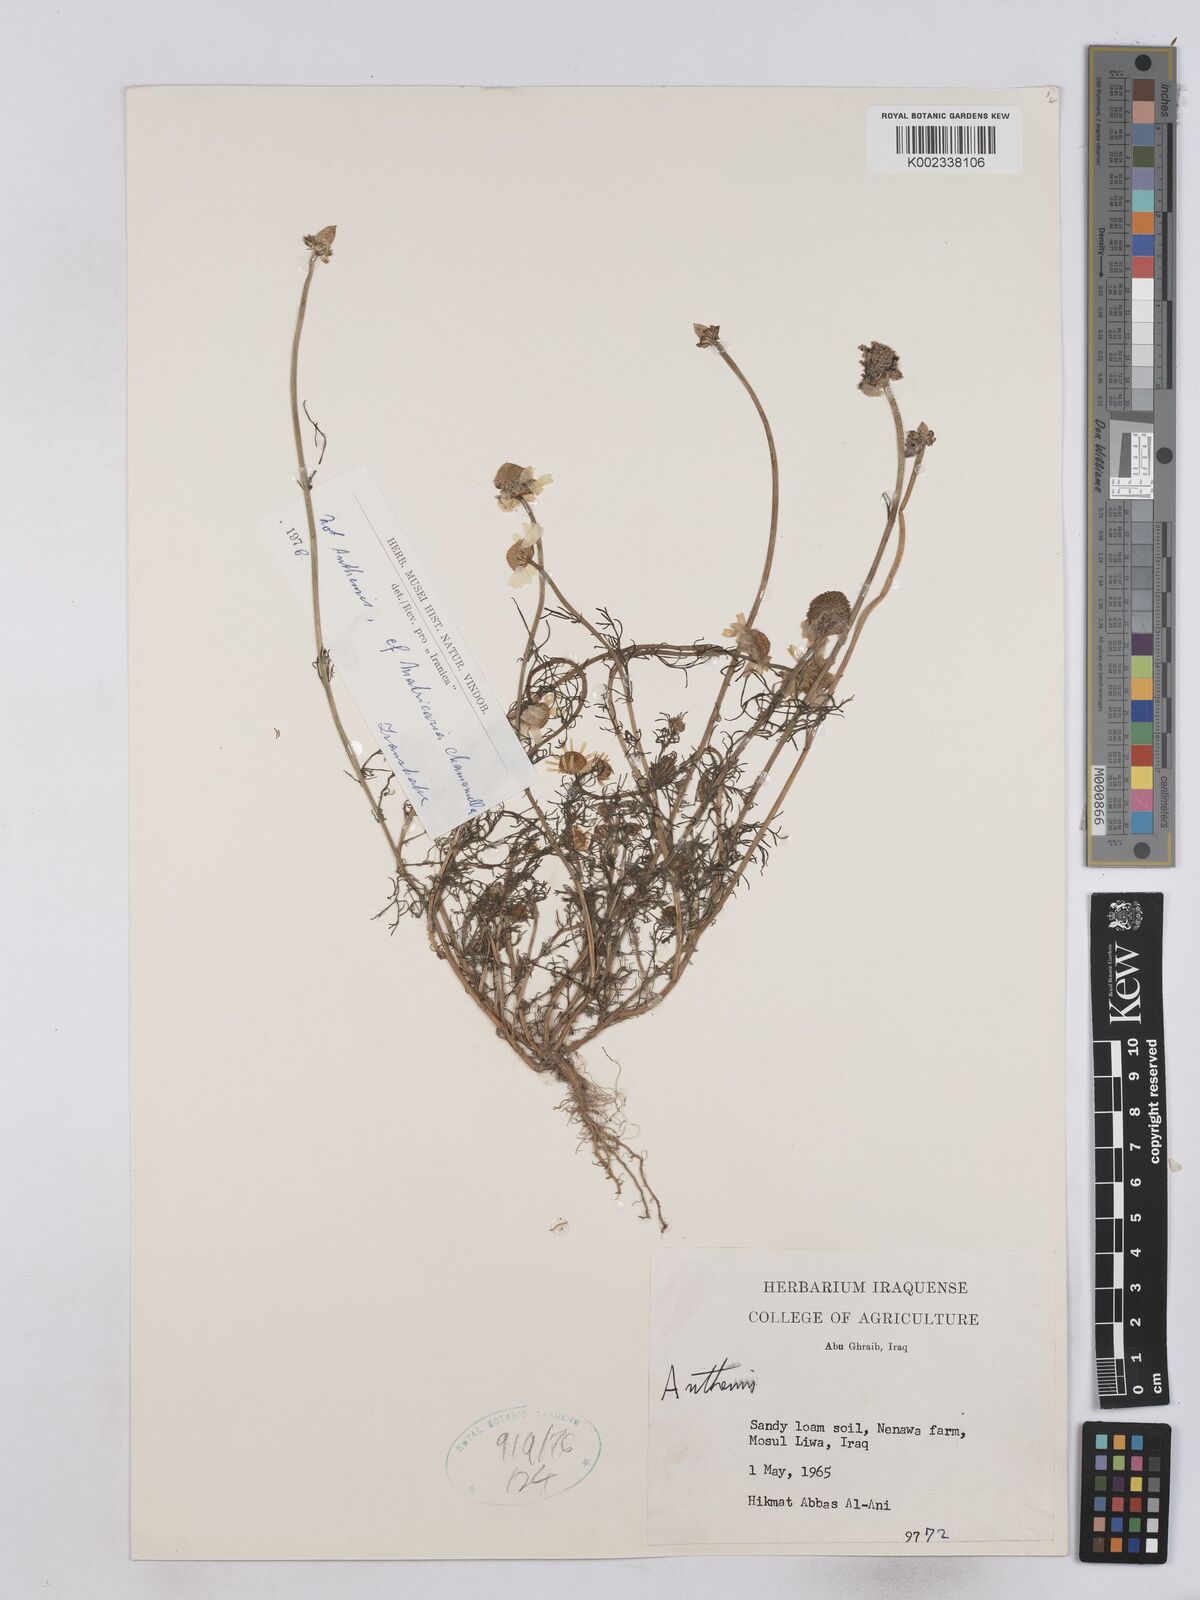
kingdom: Plantae
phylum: Tracheophyta
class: Magnoliopsida
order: Asterales
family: Asteraceae
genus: Matricaria
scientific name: Matricaria chamomilla
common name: Scented mayweed
